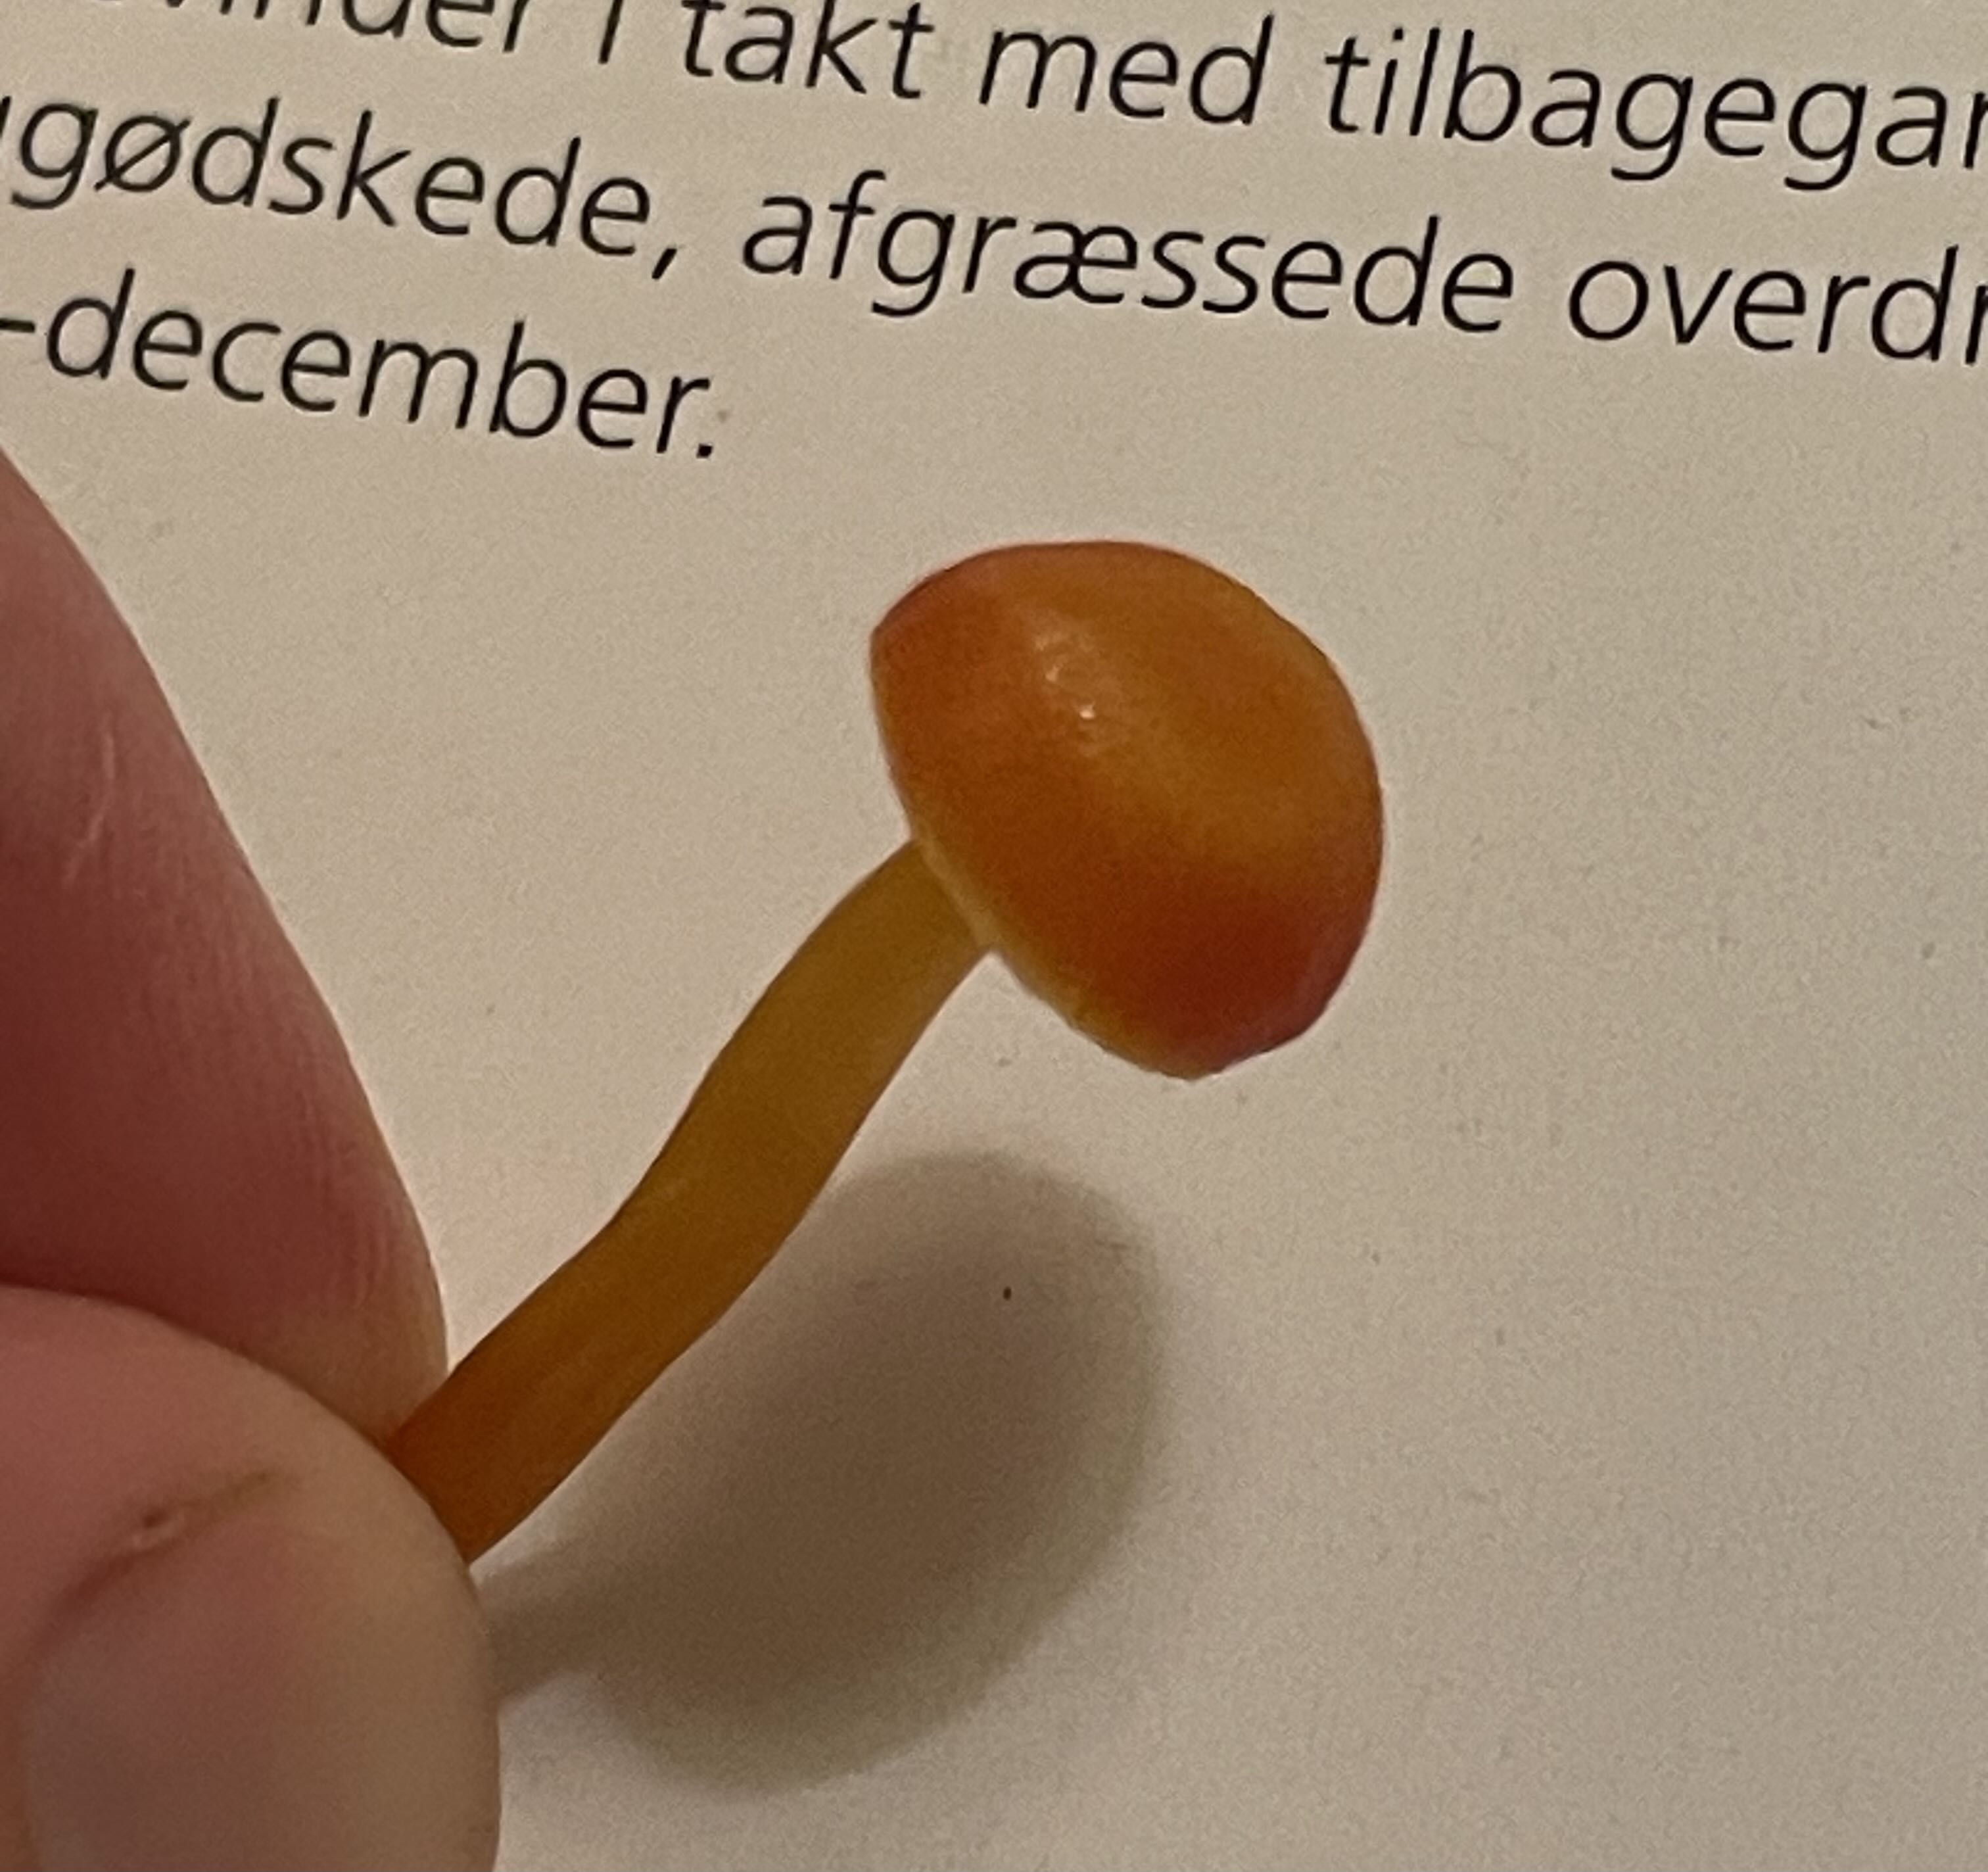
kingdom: Fungi
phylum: Basidiomycota
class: Agaricomycetes
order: Agaricales
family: Hygrophoraceae
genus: Hygrocybe
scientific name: Hygrocybe ceracea
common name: voksgul vokshat
